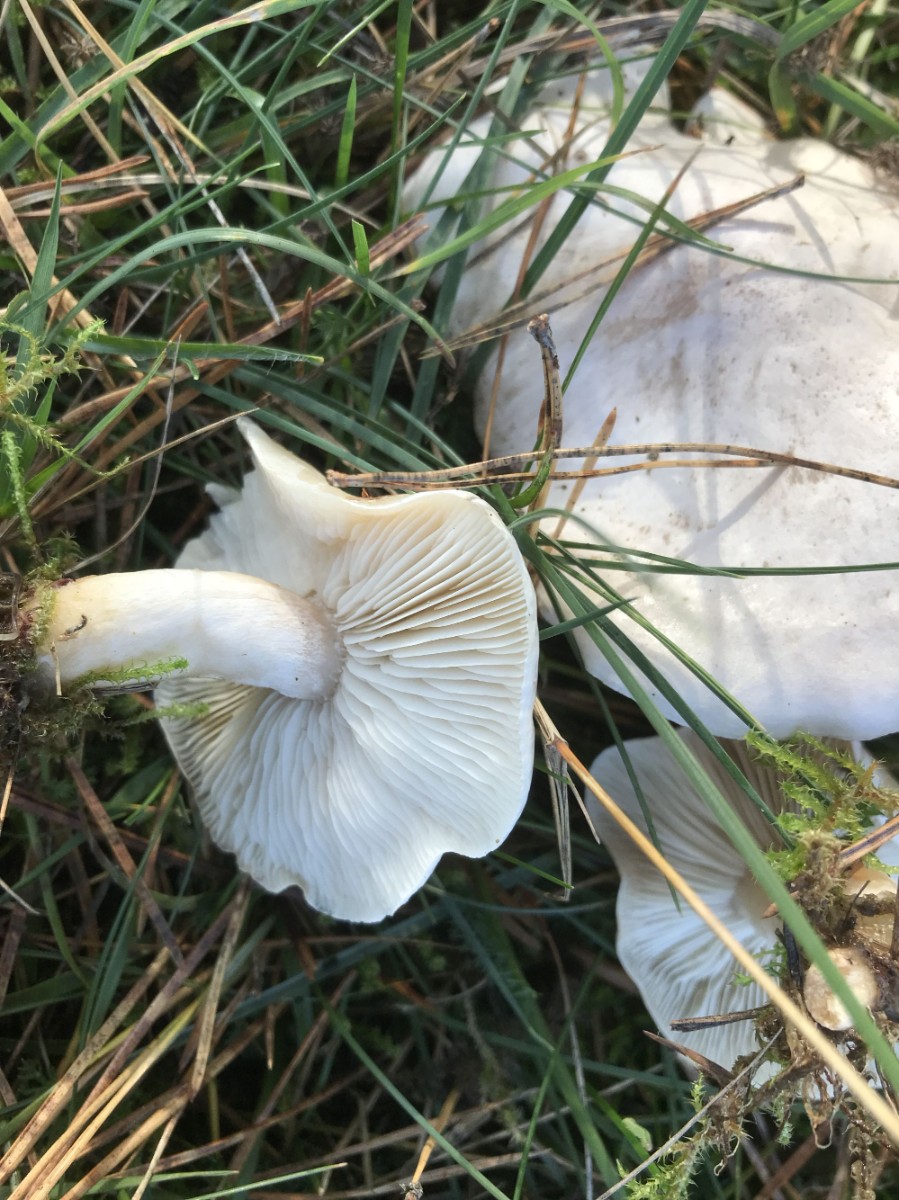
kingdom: Fungi
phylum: Basidiomycota
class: Agaricomycetes
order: Agaricales
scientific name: Agaricales
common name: champignonordenen
